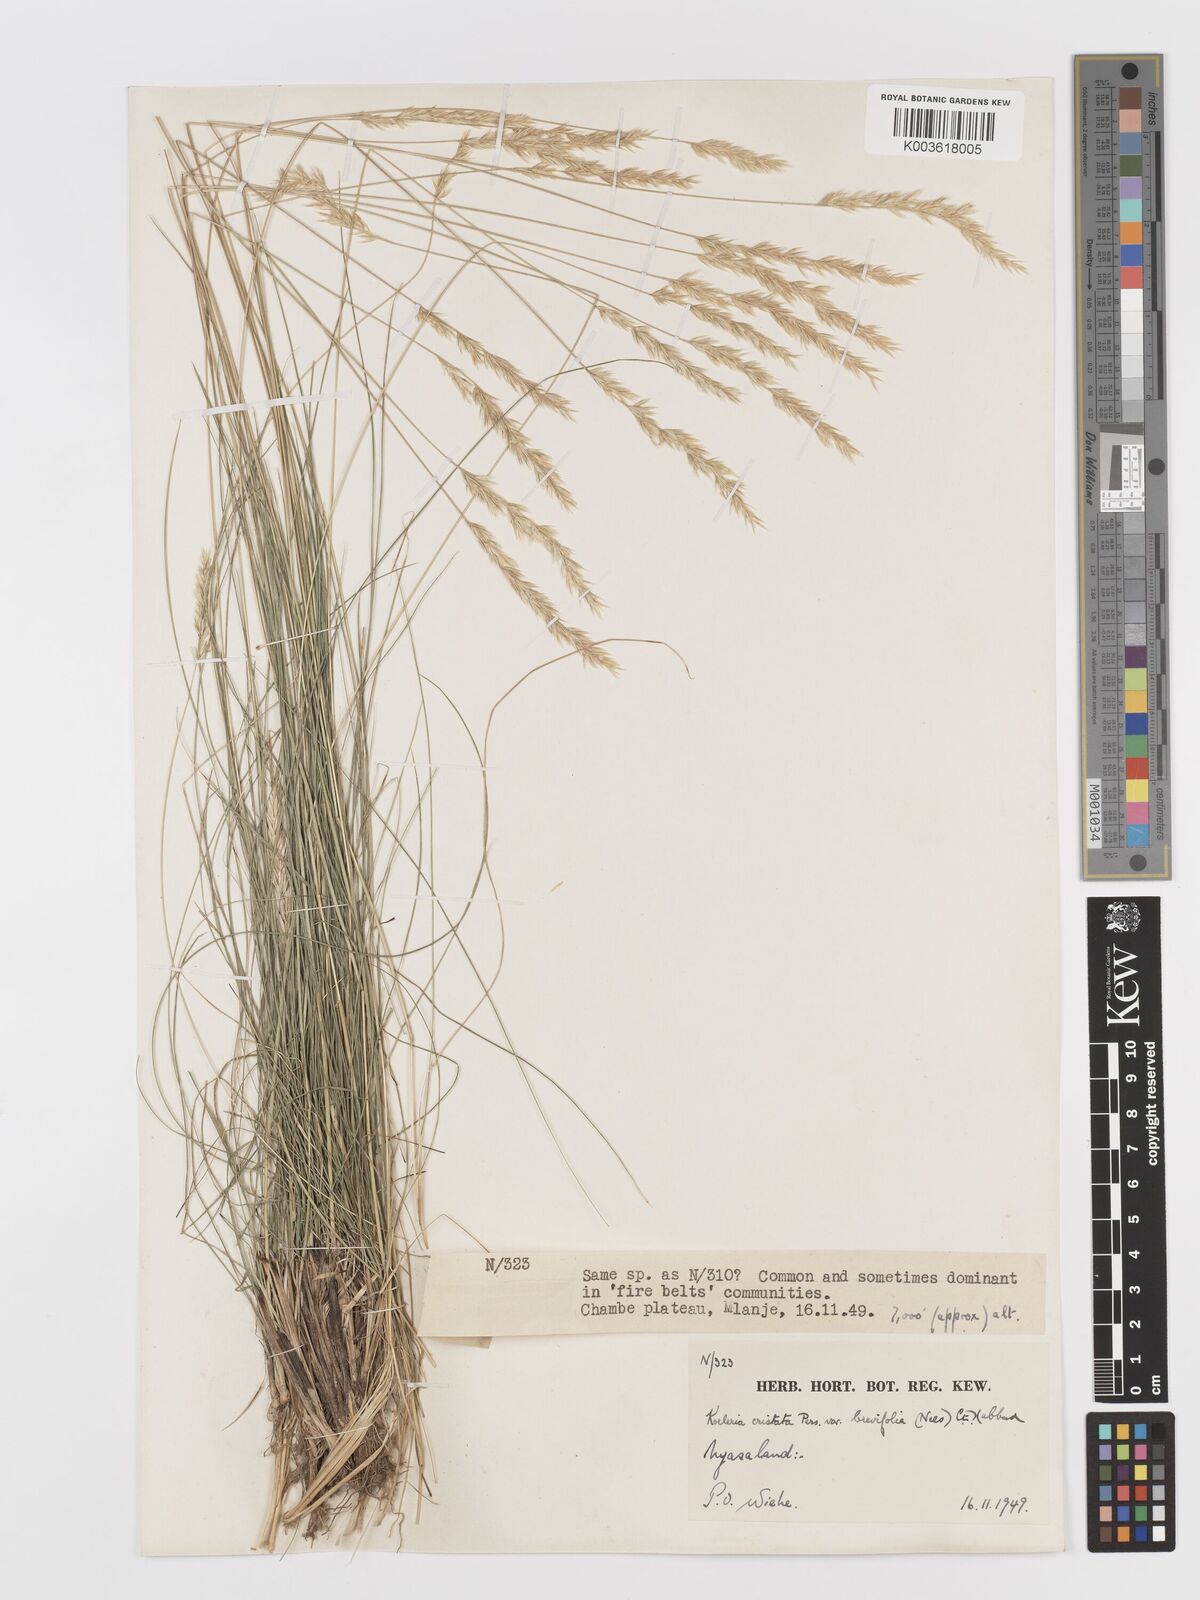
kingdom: Plantae
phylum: Tracheophyta
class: Liliopsida
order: Poales
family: Poaceae
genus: Koeleria
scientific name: Koeleria capensis
